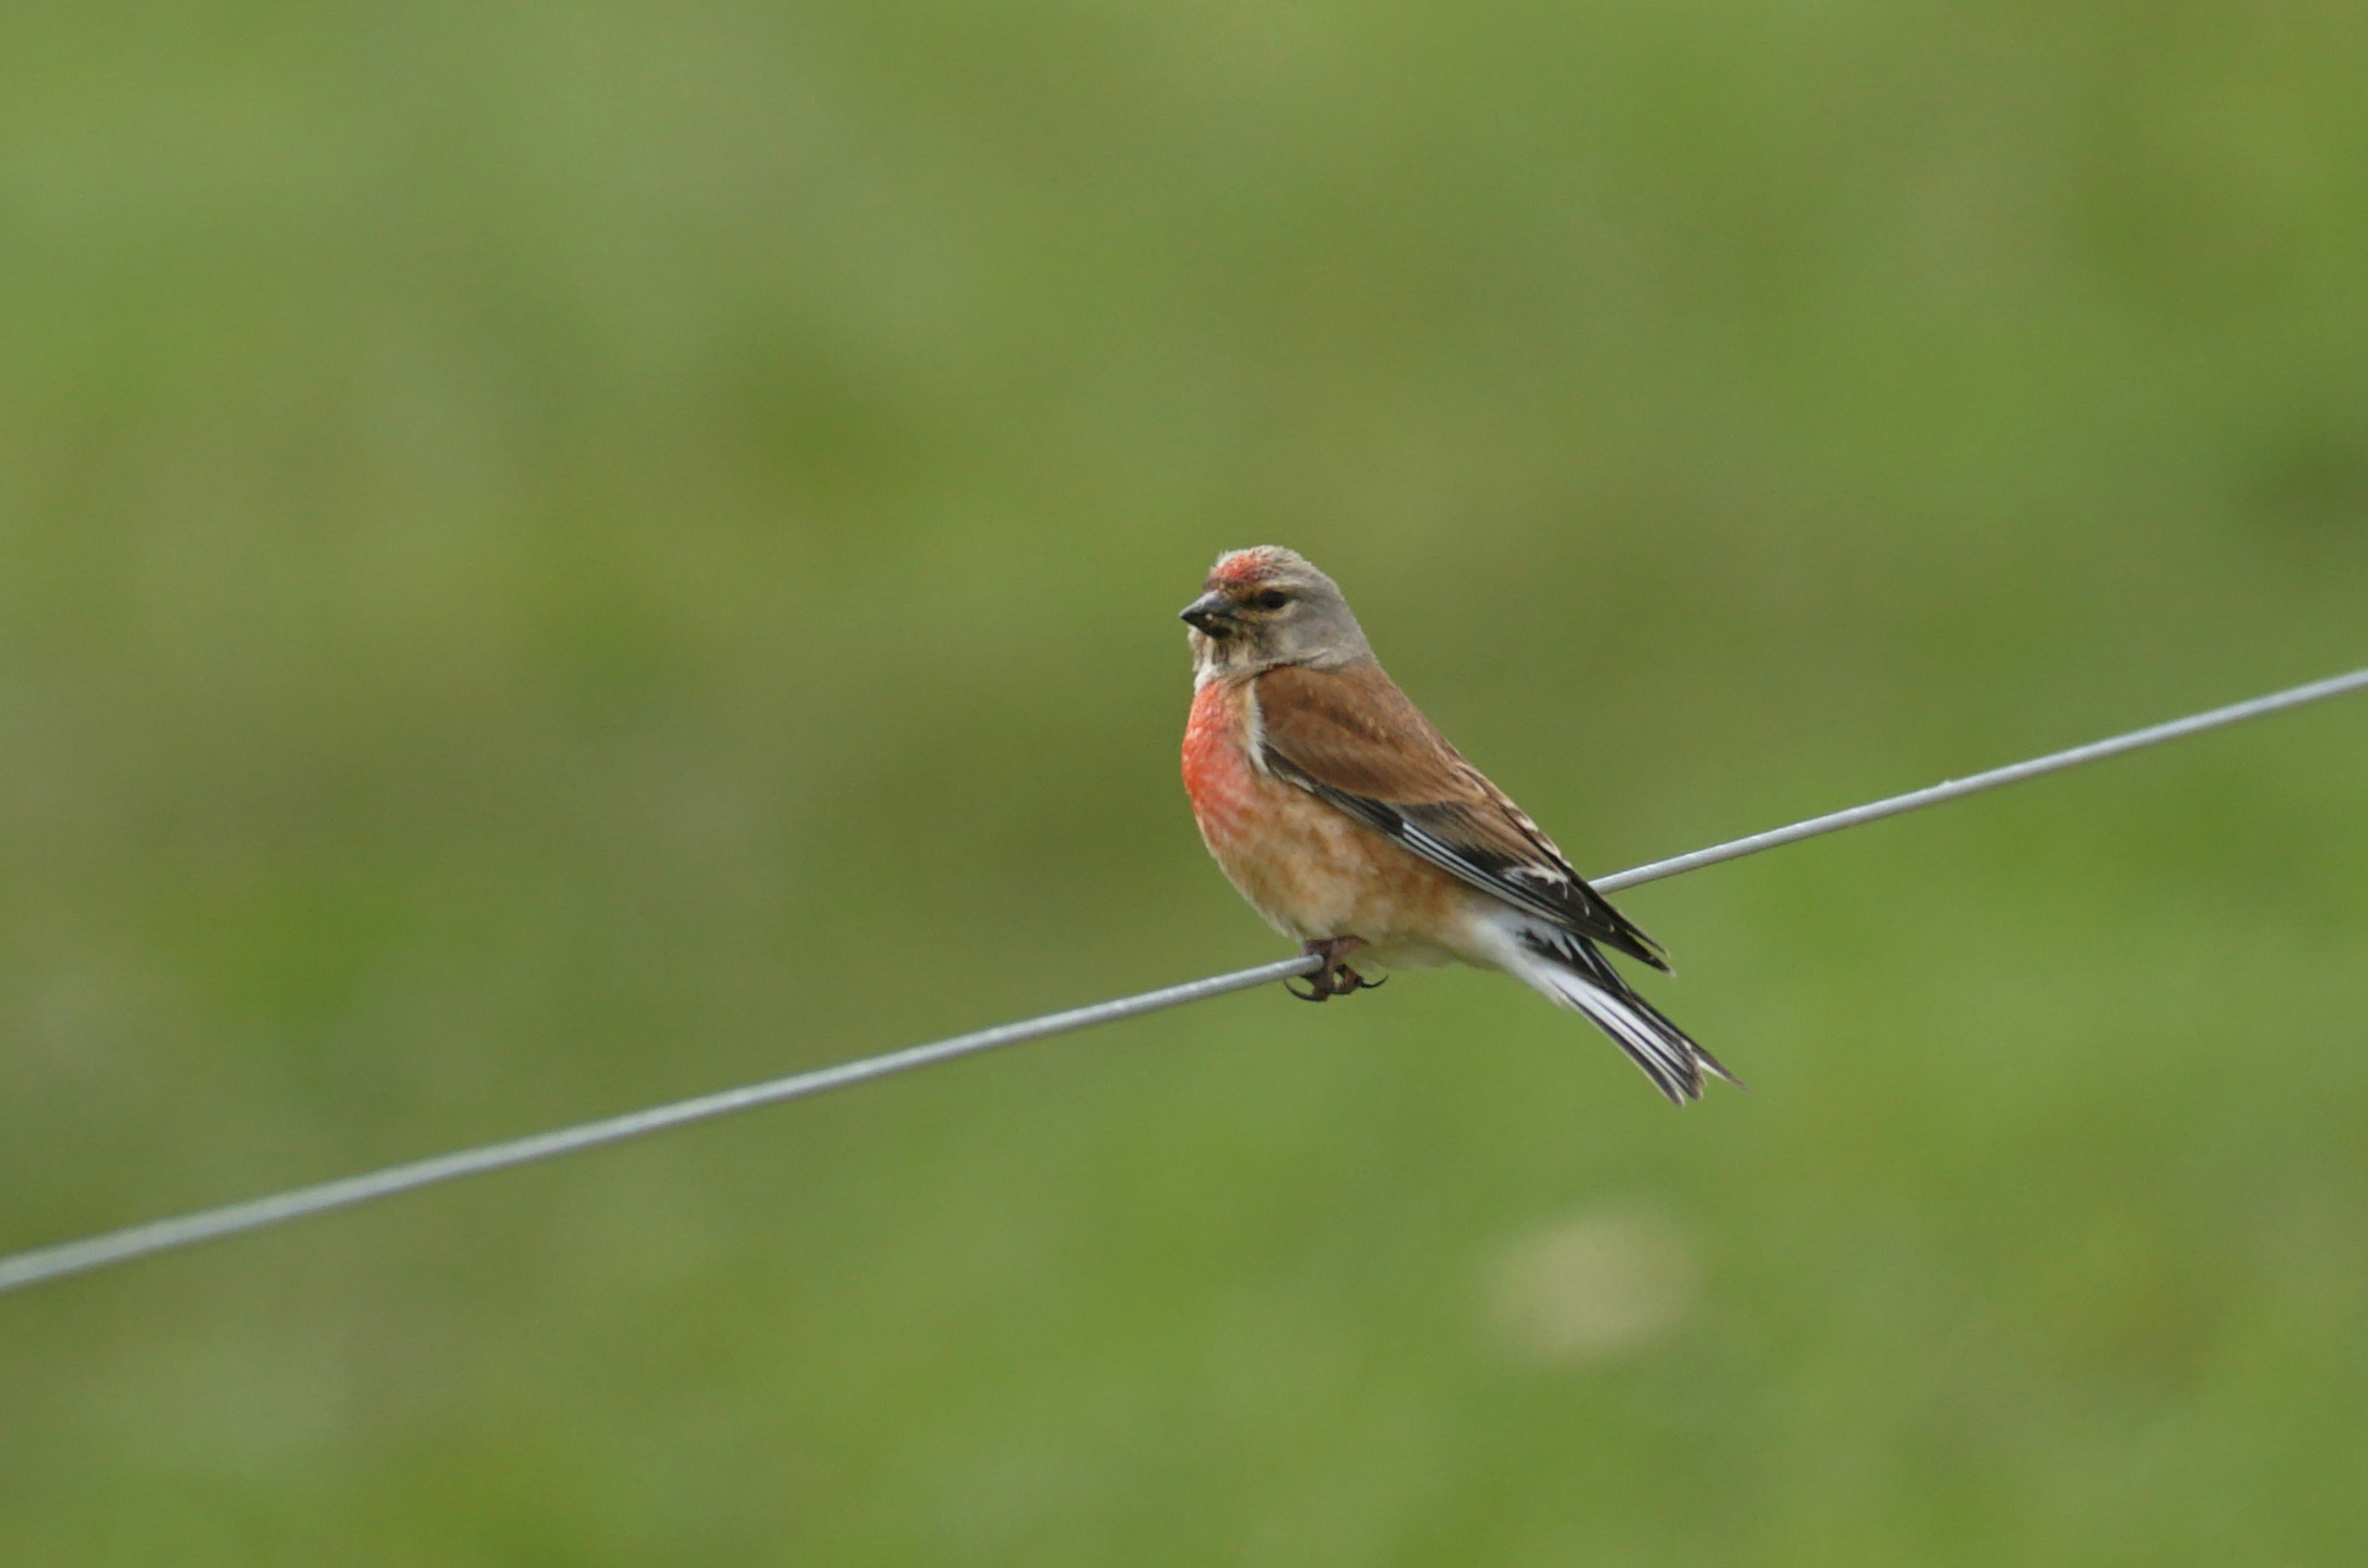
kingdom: Animalia
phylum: Chordata
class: Aves
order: Passeriformes
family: Fringillidae
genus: Linaria
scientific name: Linaria cannabina
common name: Tornirisk
